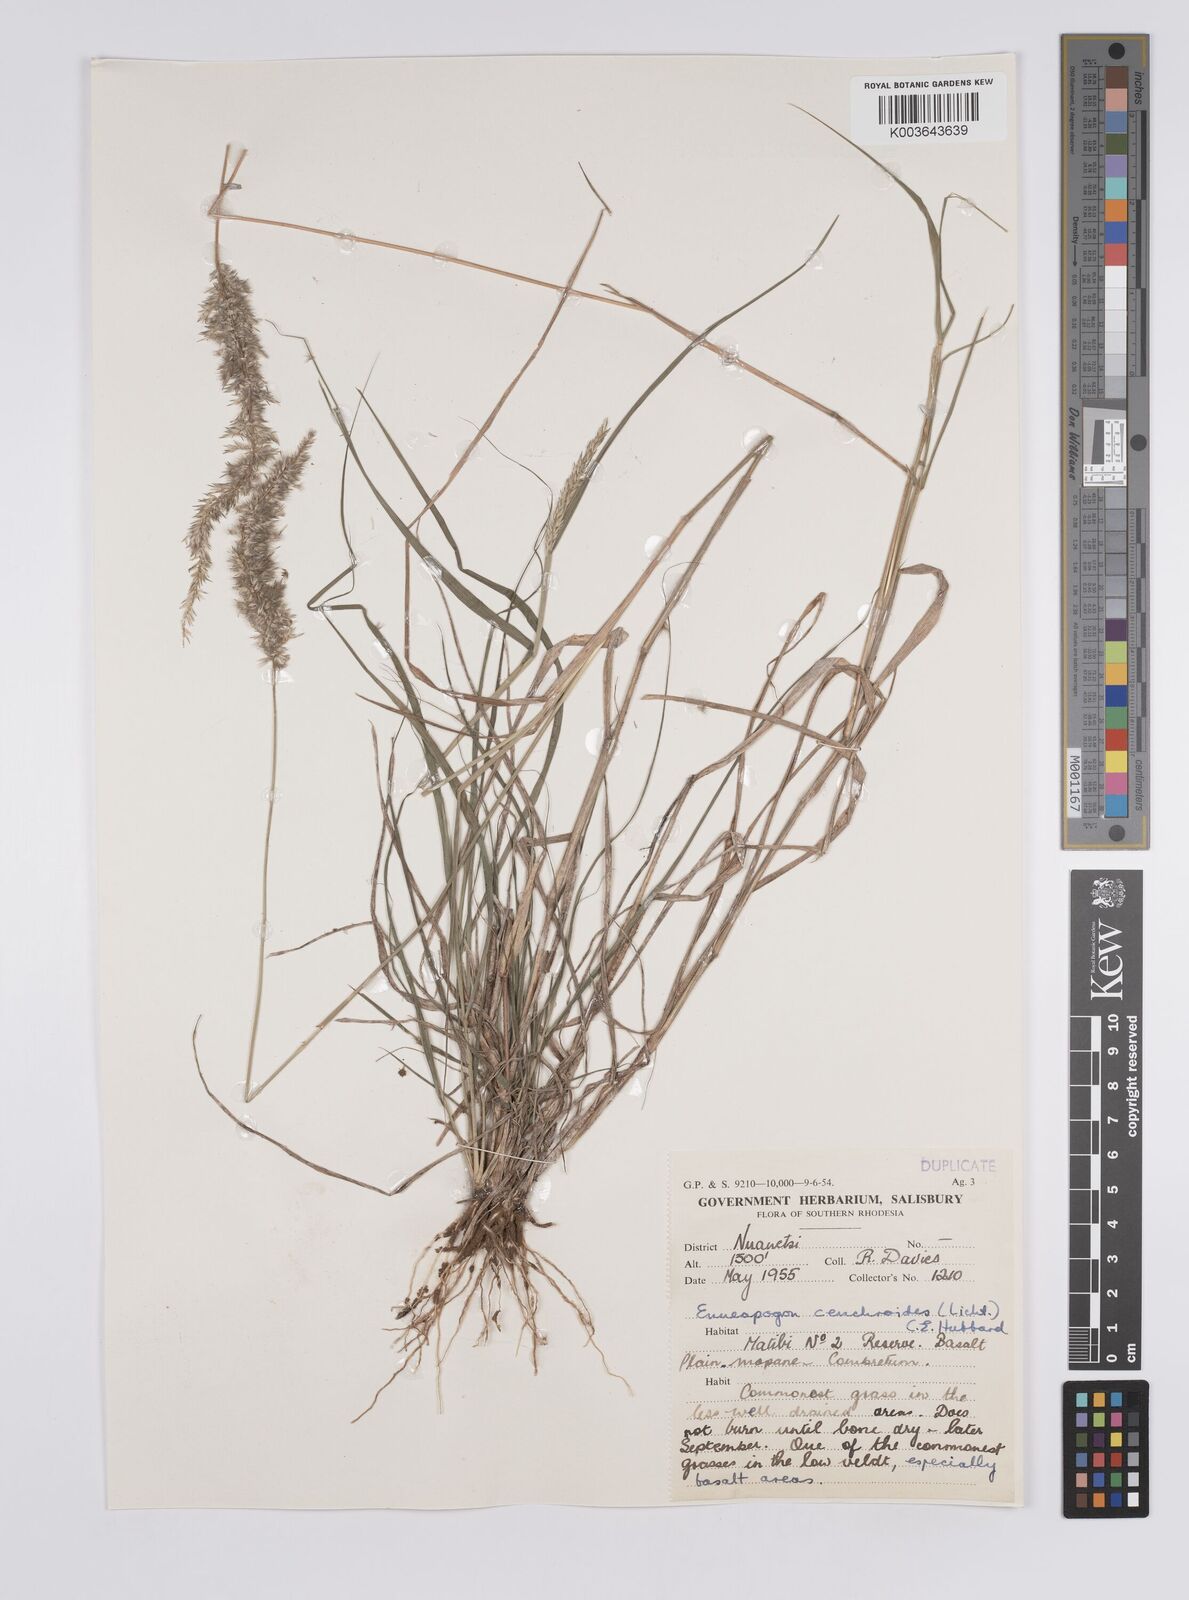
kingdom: Plantae
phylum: Tracheophyta
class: Liliopsida
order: Poales
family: Poaceae
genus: Enneapogon
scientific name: Enneapogon cenchroides
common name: Soft feather pappusgrass
